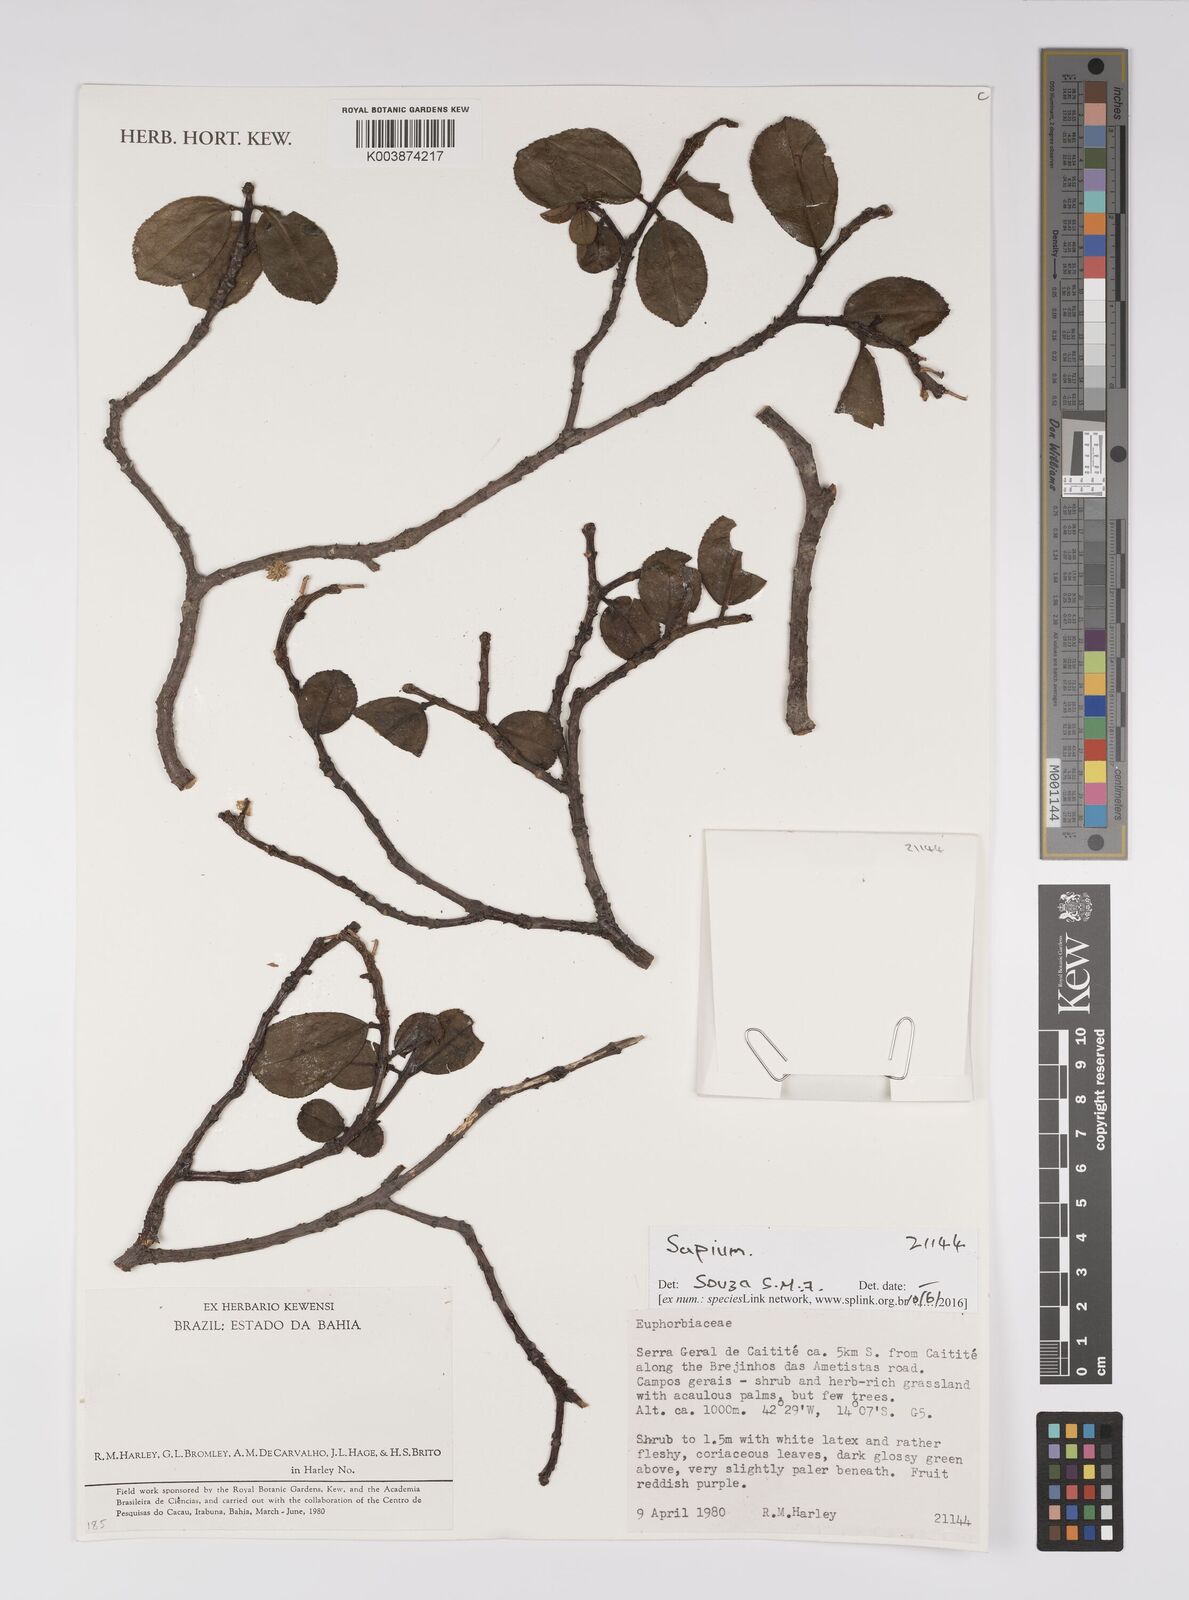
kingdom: Plantae
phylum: Tracheophyta
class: Magnoliopsida
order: Malpighiales
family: Euphorbiaceae
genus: Sapium
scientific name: Sapium
